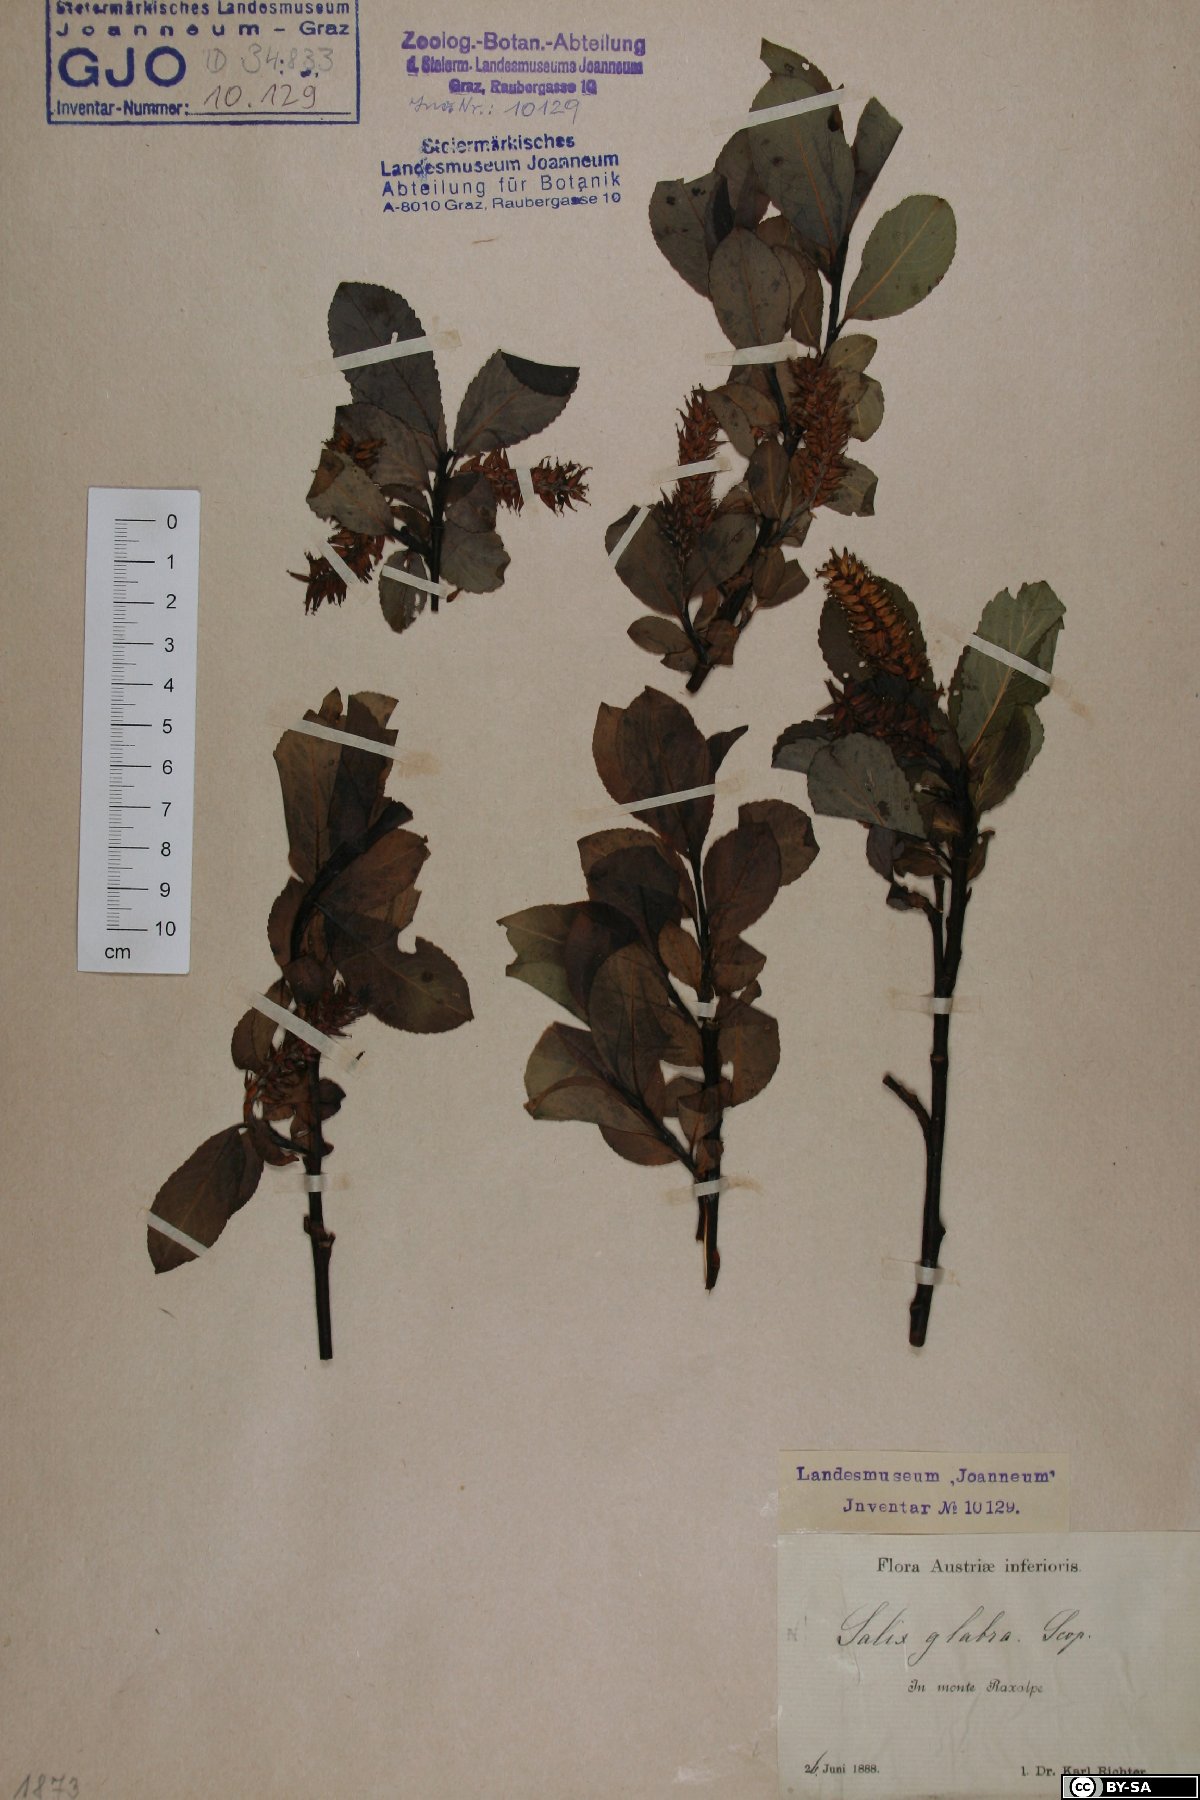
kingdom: Plantae
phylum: Tracheophyta
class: Magnoliopsida
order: Malpighiales
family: Salicaceae
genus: Salix
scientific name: Salix glabra
